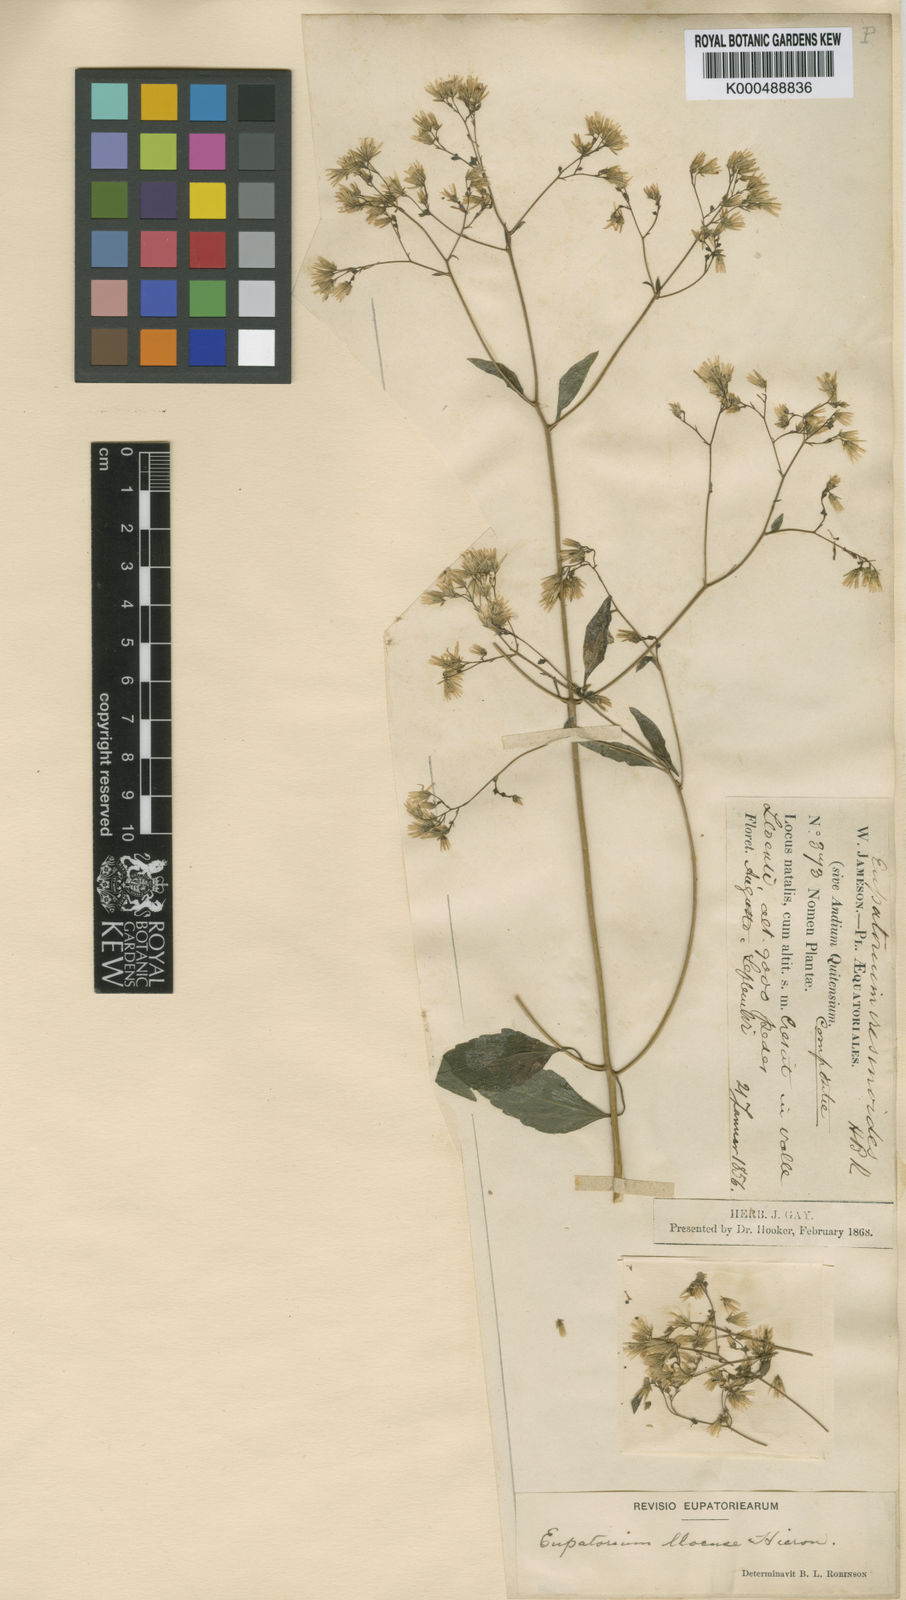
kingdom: Plantae
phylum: Tracheophyta
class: Magnoliopsida
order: Asterales
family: Asteraceae
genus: Fleischmannia
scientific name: Fleischmannia lloensis
